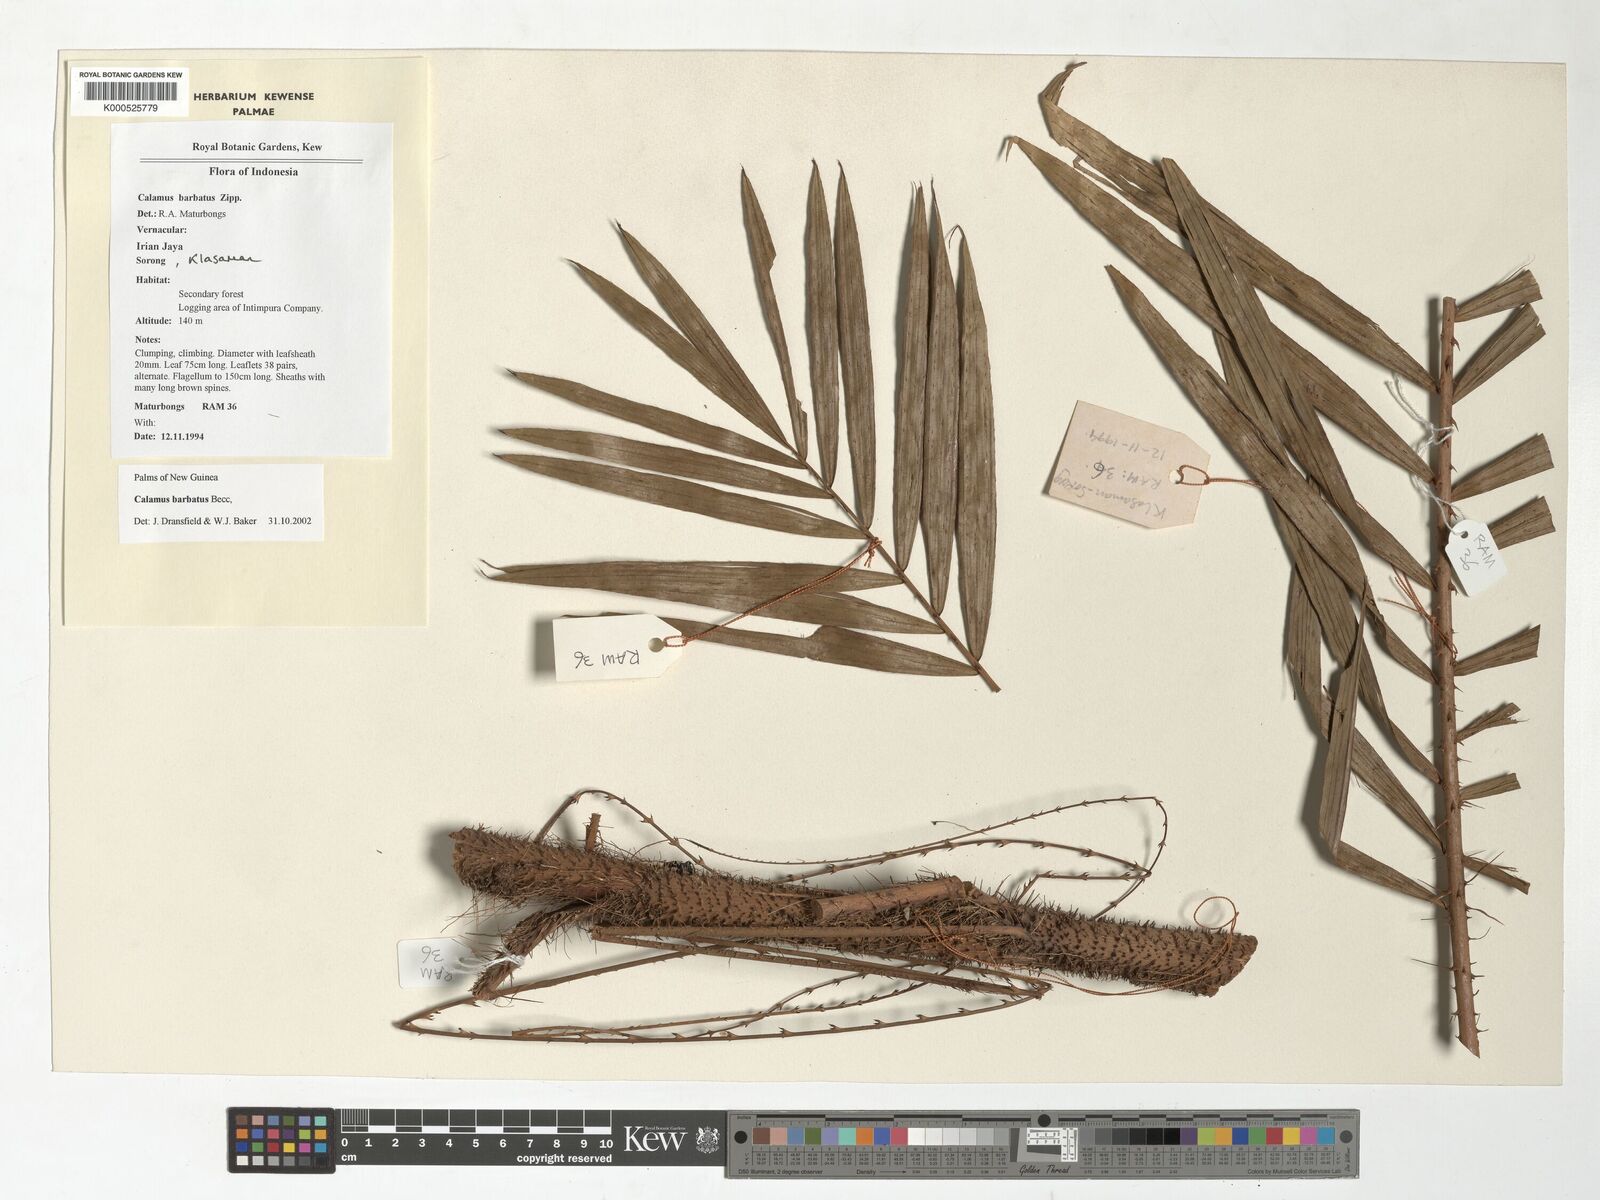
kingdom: Plantae
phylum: Tracheophyta
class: Liliopsida
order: Arecales
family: Arecaceae
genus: Calamus
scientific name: Calamus
